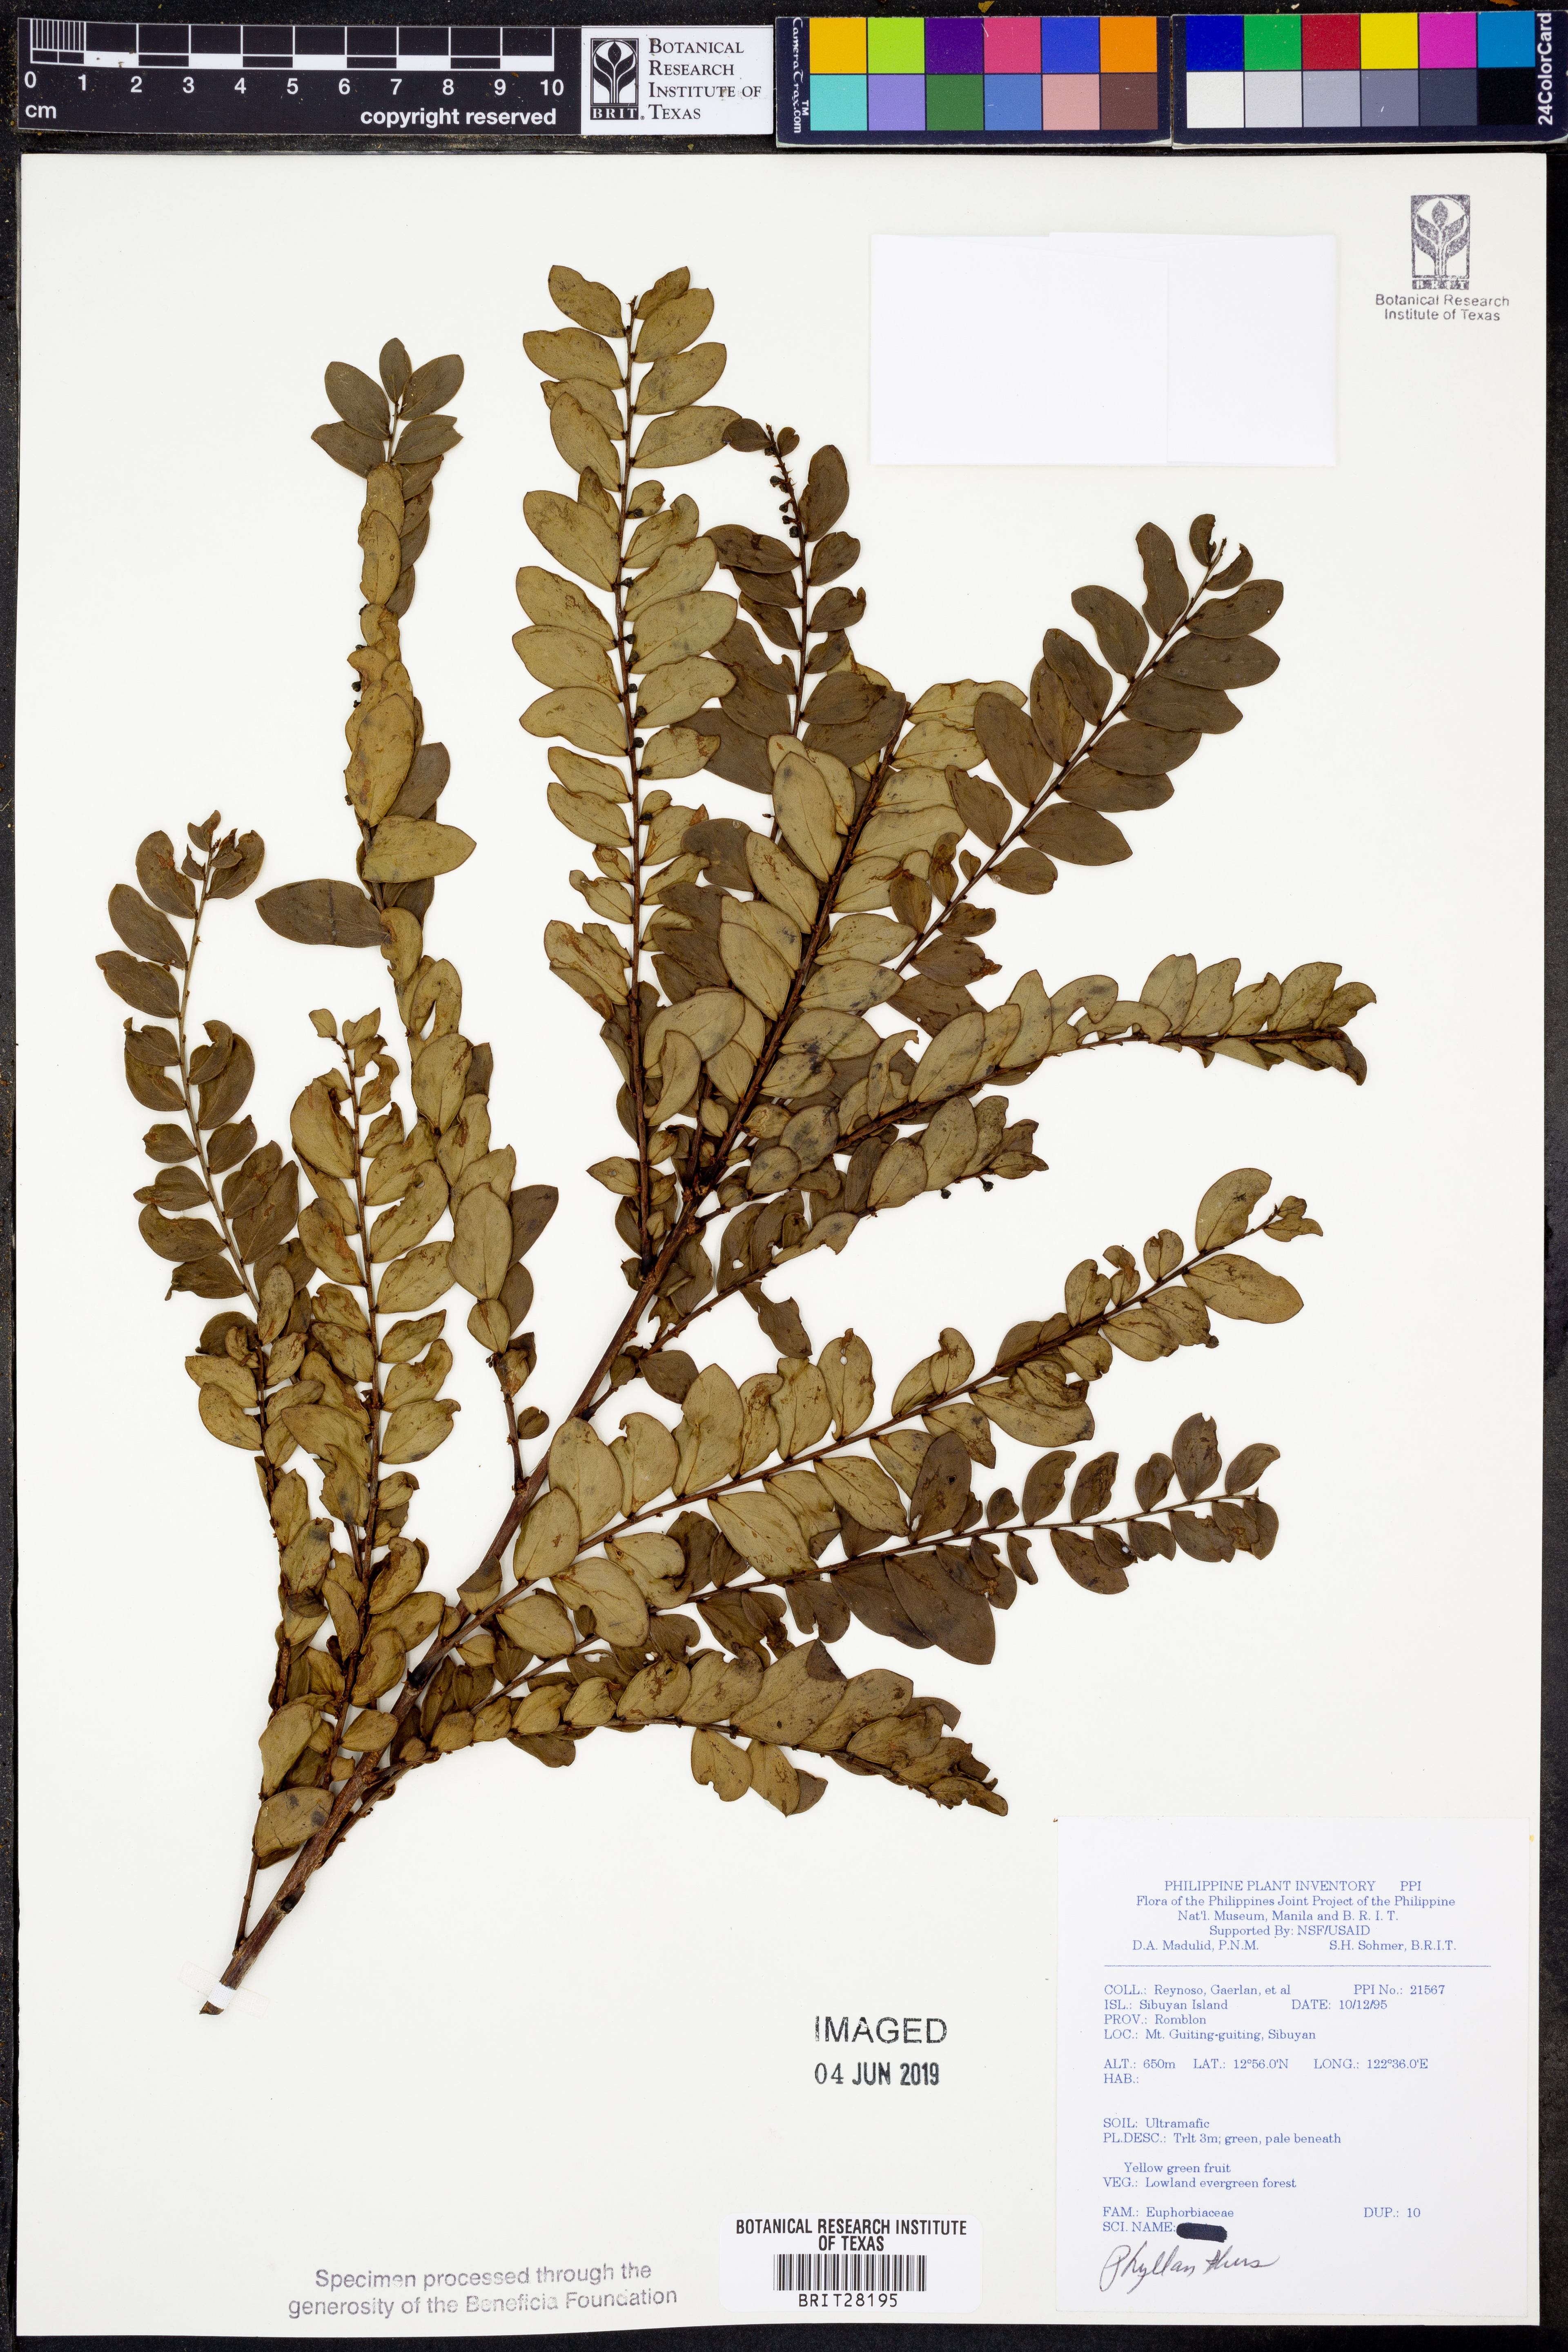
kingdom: Plantae
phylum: Tracheophyta
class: Magnoliopsida
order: Malpighiales
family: Phyllanthaceae
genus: Phyllanthus
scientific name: Phyllanthus
